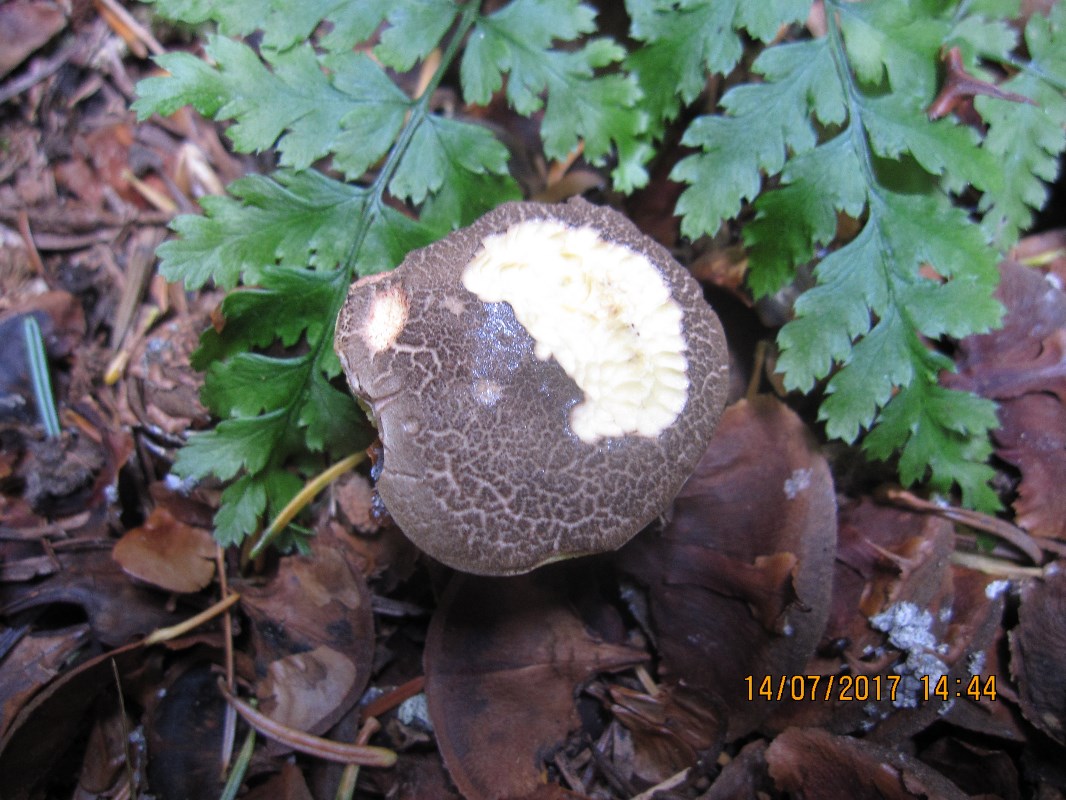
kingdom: Fungi
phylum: Basidiomycota
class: Agaricomycetes
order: Boletales
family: Boletaceae
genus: Xerocomellus
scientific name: Xerocomellus chrysenteron
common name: rødsprukken rørhat
